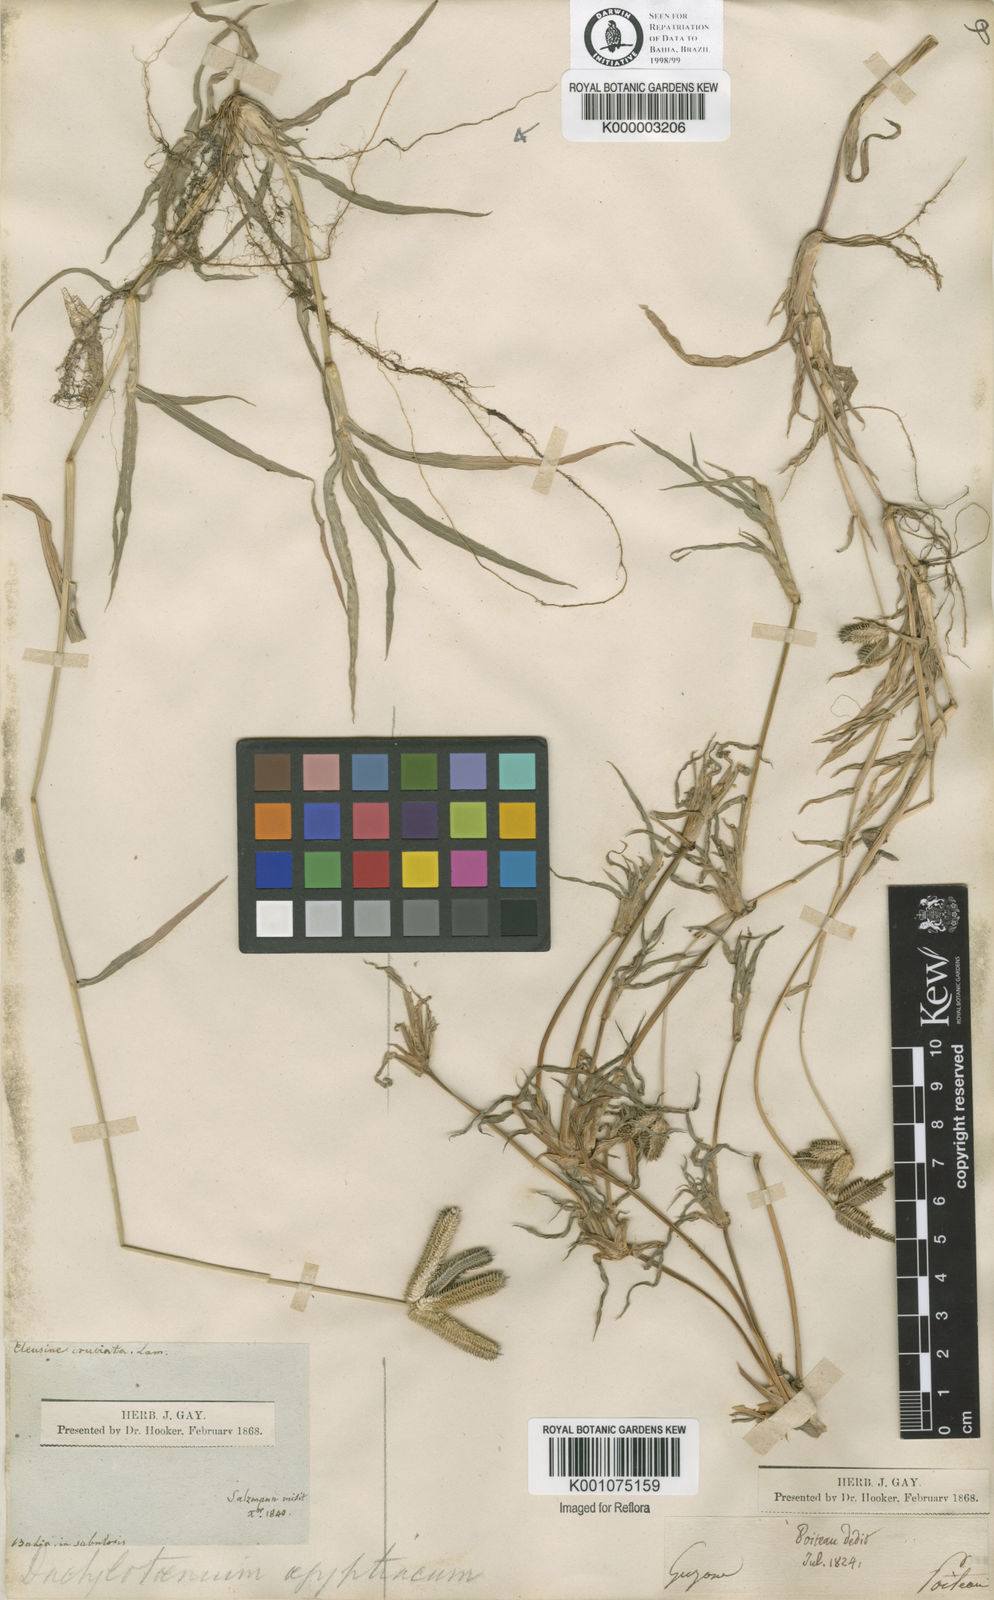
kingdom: Plantae
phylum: Tracheophyta
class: Liliopsida
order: Poales
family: Poaceae
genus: Dactyloctenium
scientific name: Dactyloctenium aegyptium
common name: Egyptian grass
